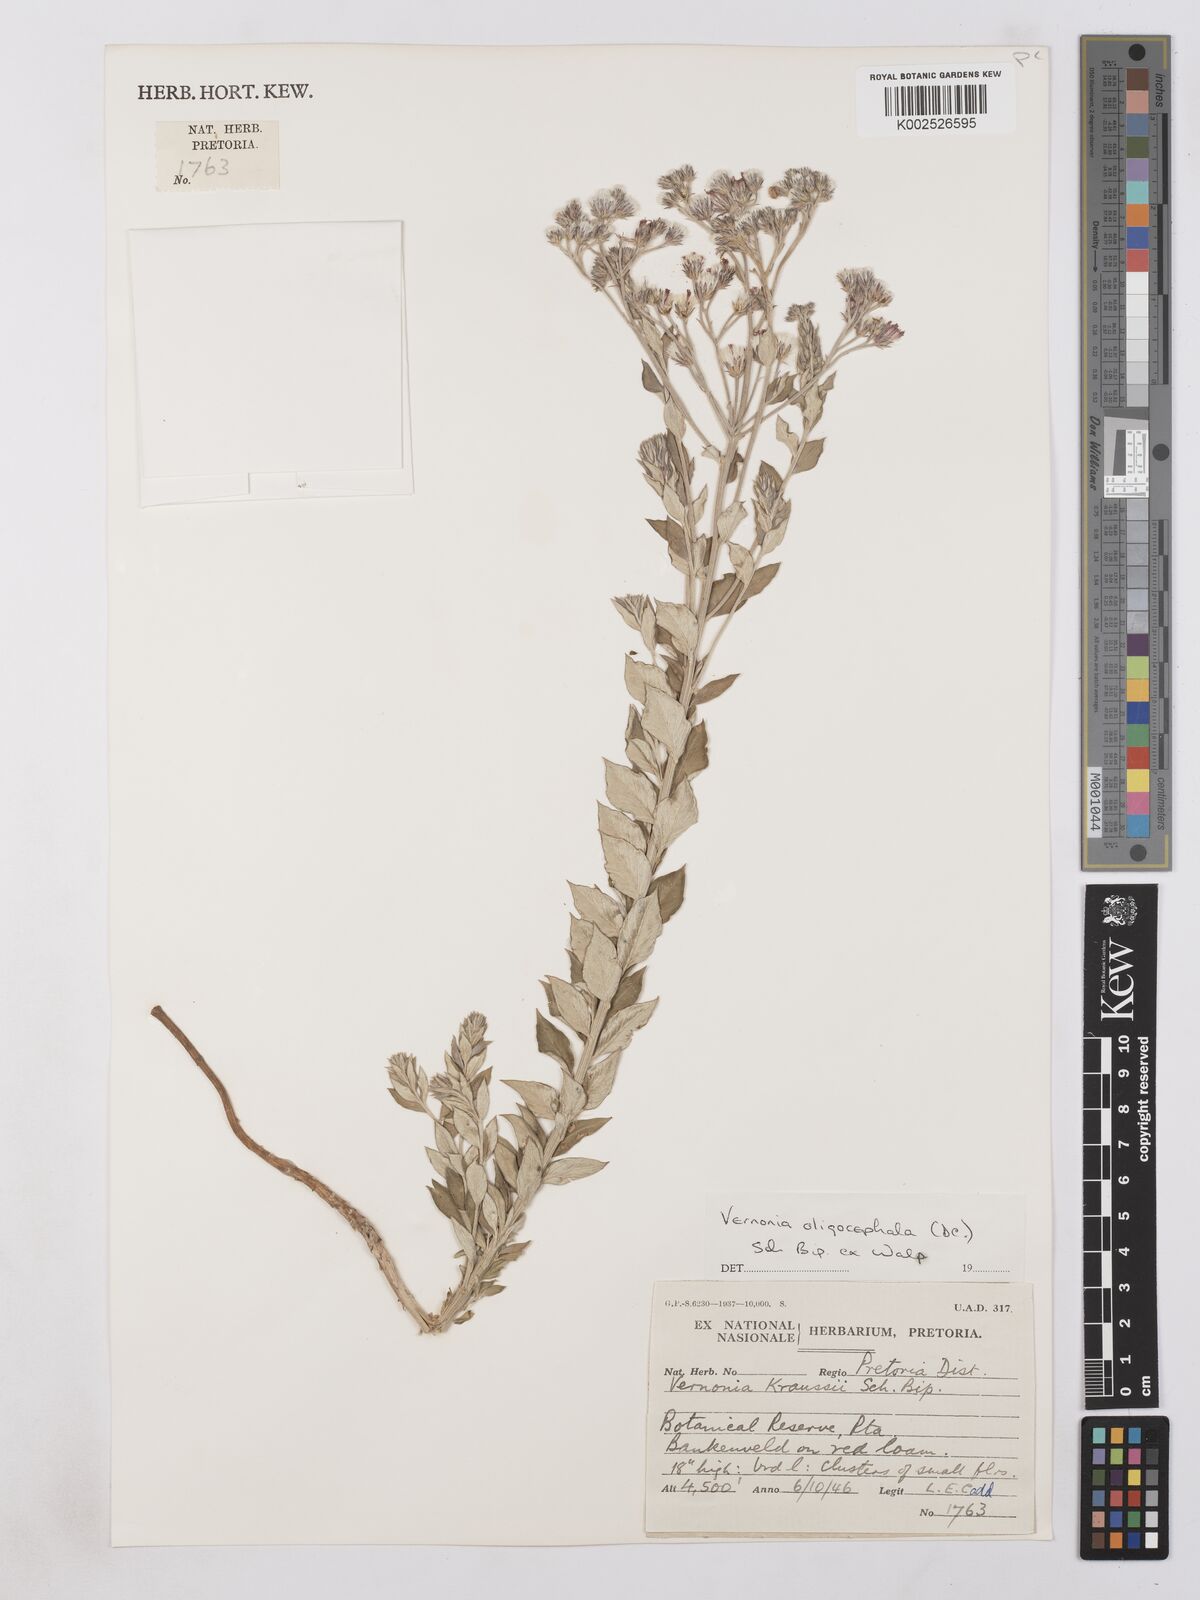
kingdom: Plantae
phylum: Tracheophyta
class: Magnoliopsida
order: Asterales
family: Asteraceae
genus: Lepidaploa
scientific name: Lepidaploa aurea
